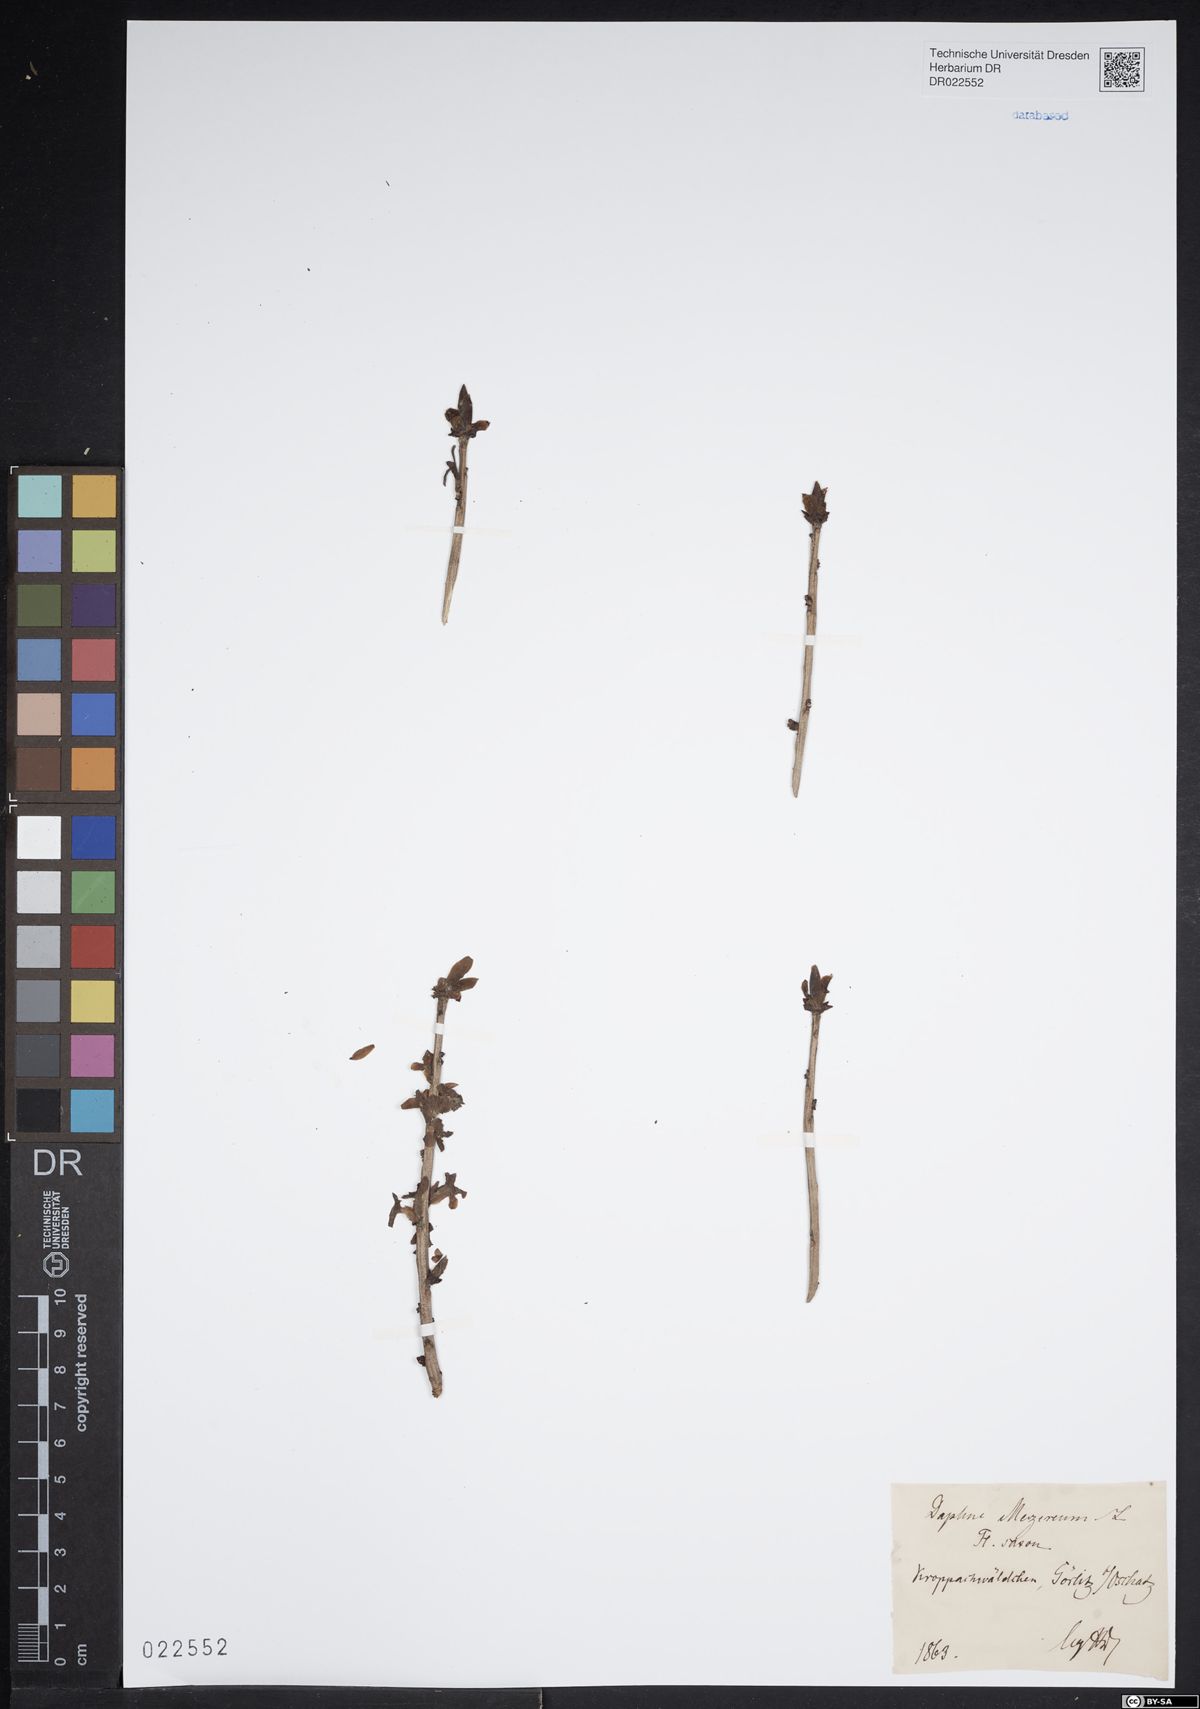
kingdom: Plantae
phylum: Tracheophyta
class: Magnoliopsida
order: Malvales
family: Thymelaeaceae
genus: Daphne
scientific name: Daphne mezereum
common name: Mezereon
